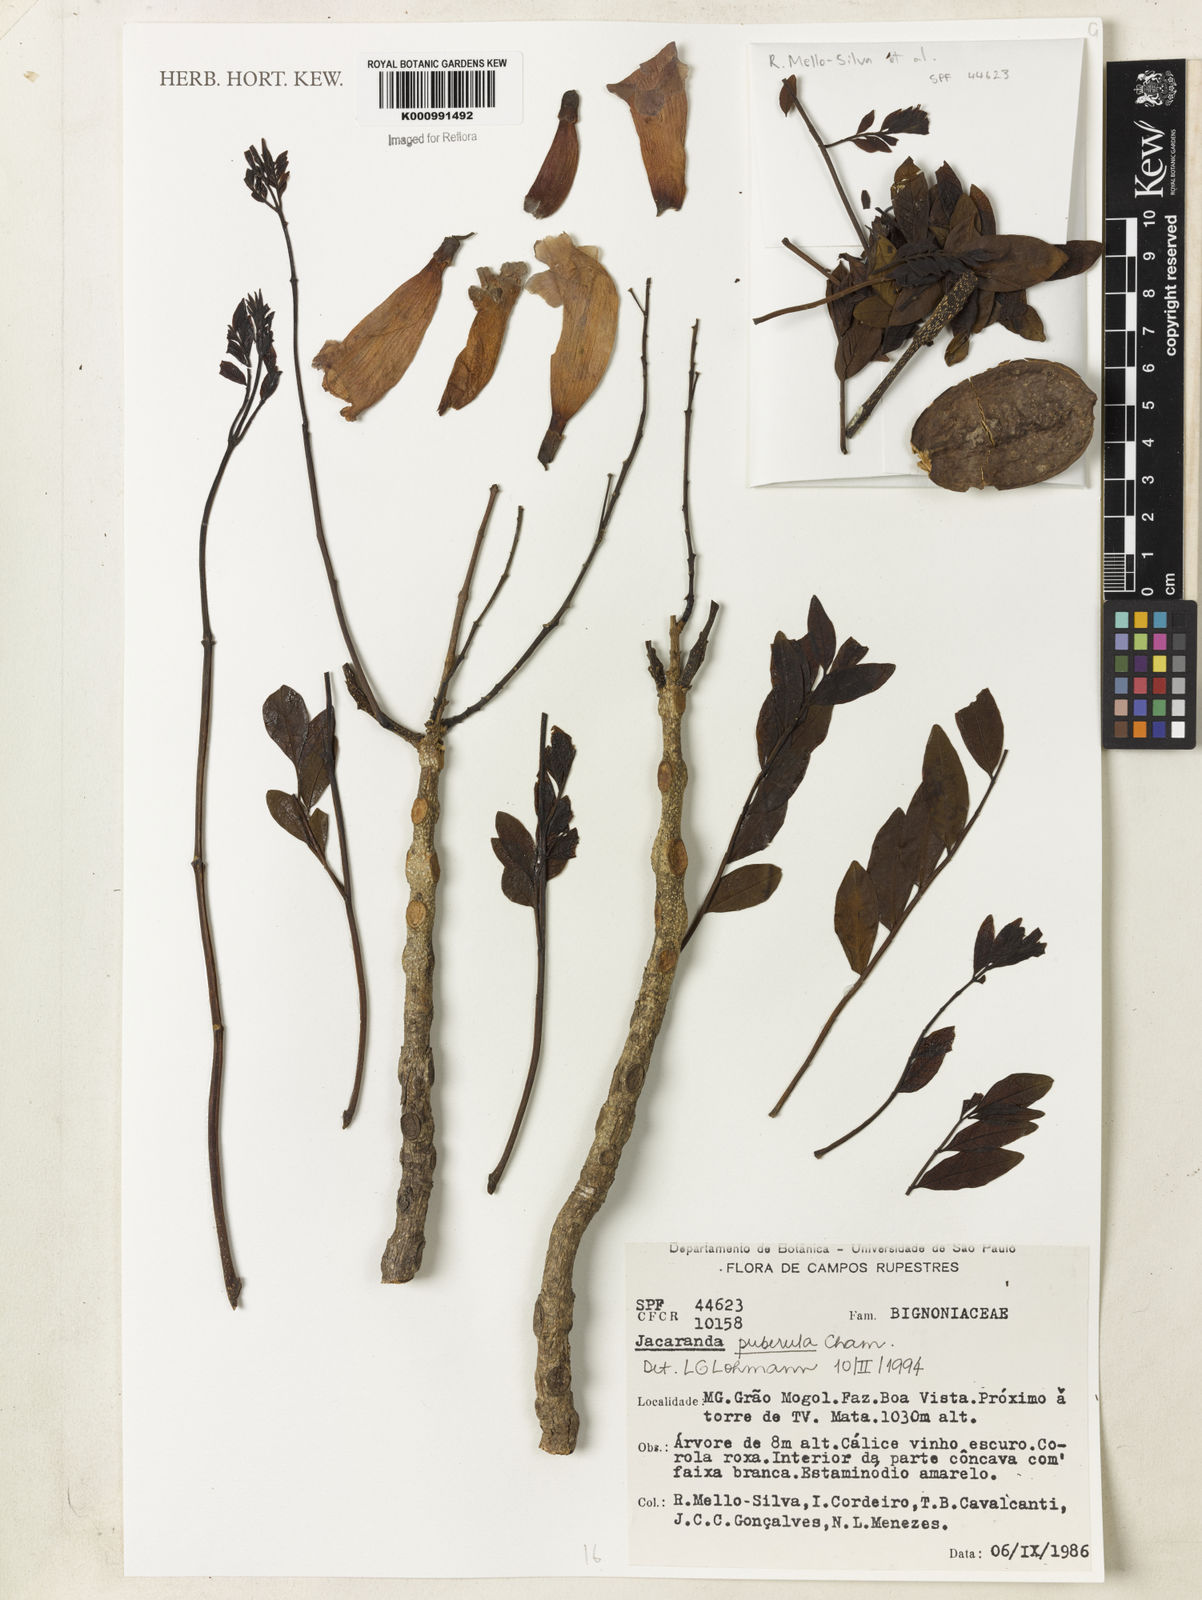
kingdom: Plantae
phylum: Tracheophyta
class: Magnoliopsida
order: Lamiales
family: Bignoniaceae
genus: Jacaranda
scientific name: Jacaranda puberula
